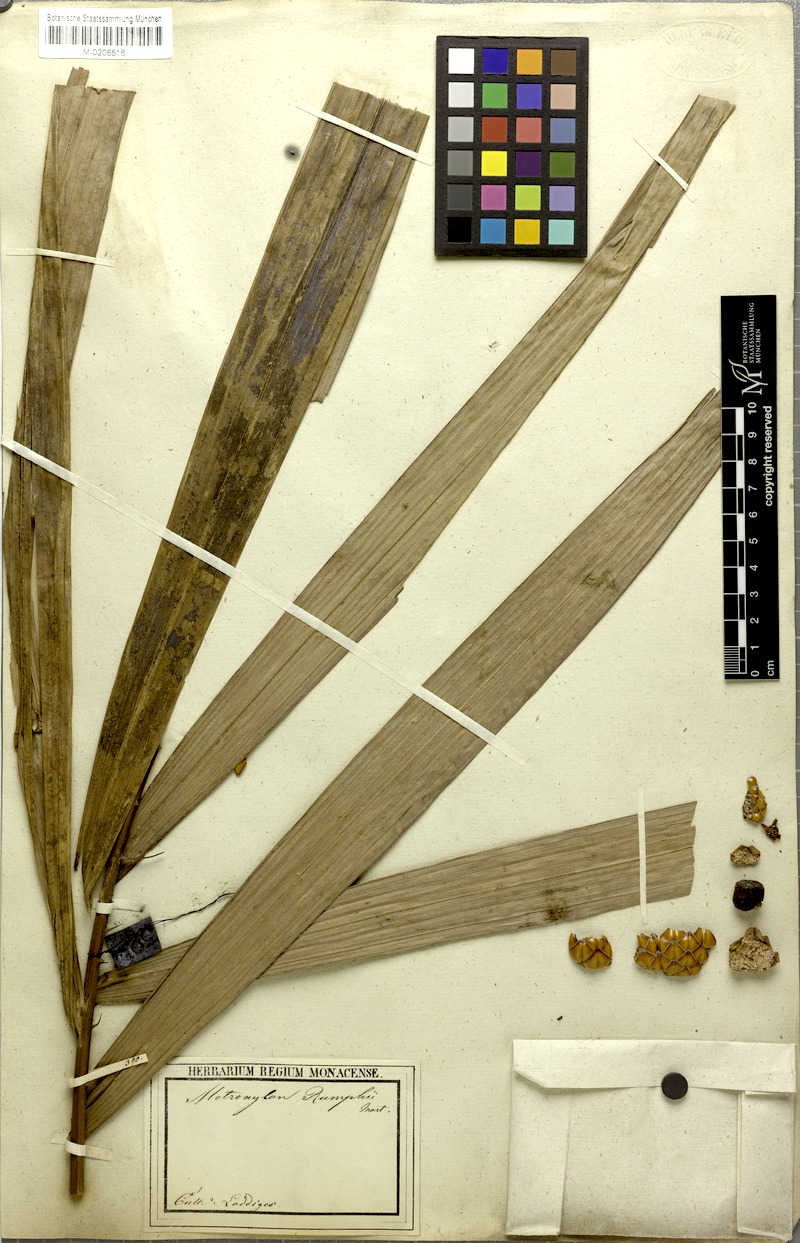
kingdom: Plantae
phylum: Tracheophyta
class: Liliopsida
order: Arecales
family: Arecaceae
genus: Metroxylon
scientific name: Metroxylon sagu
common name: Sago palm
